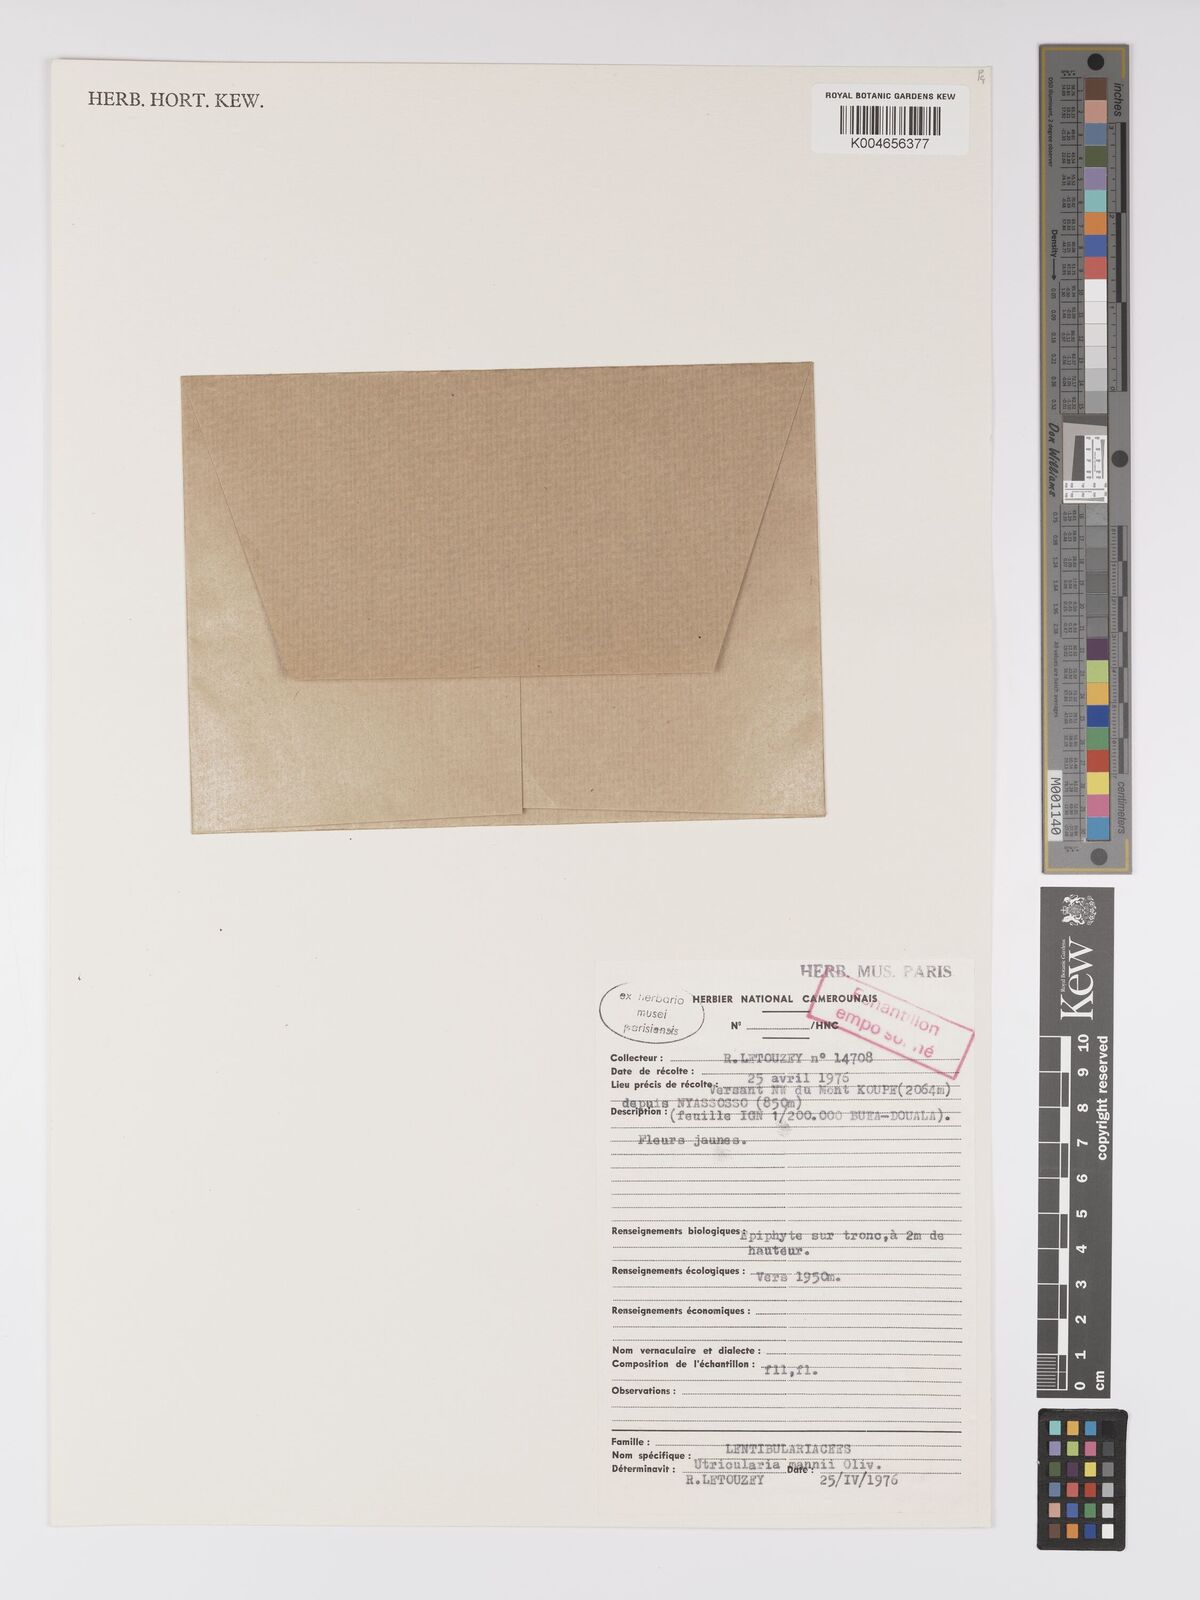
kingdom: Plantae
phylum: Tracheophyta
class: Magnoliopsida
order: Lamiales
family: Lentibulariaceae
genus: Utricularia
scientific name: Utricularia mannii
